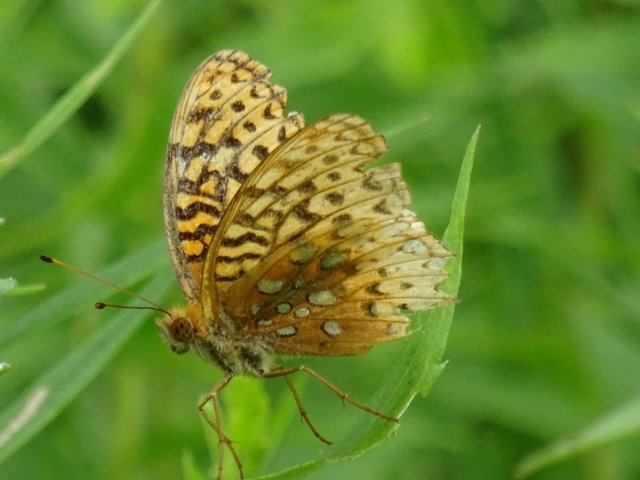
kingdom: Animalia
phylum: Arthropoda
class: Insecta
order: Lepidoptera
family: Nymphalidae
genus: Speyeria
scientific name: Speyeria cybele
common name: Great Spangled Fritillary
